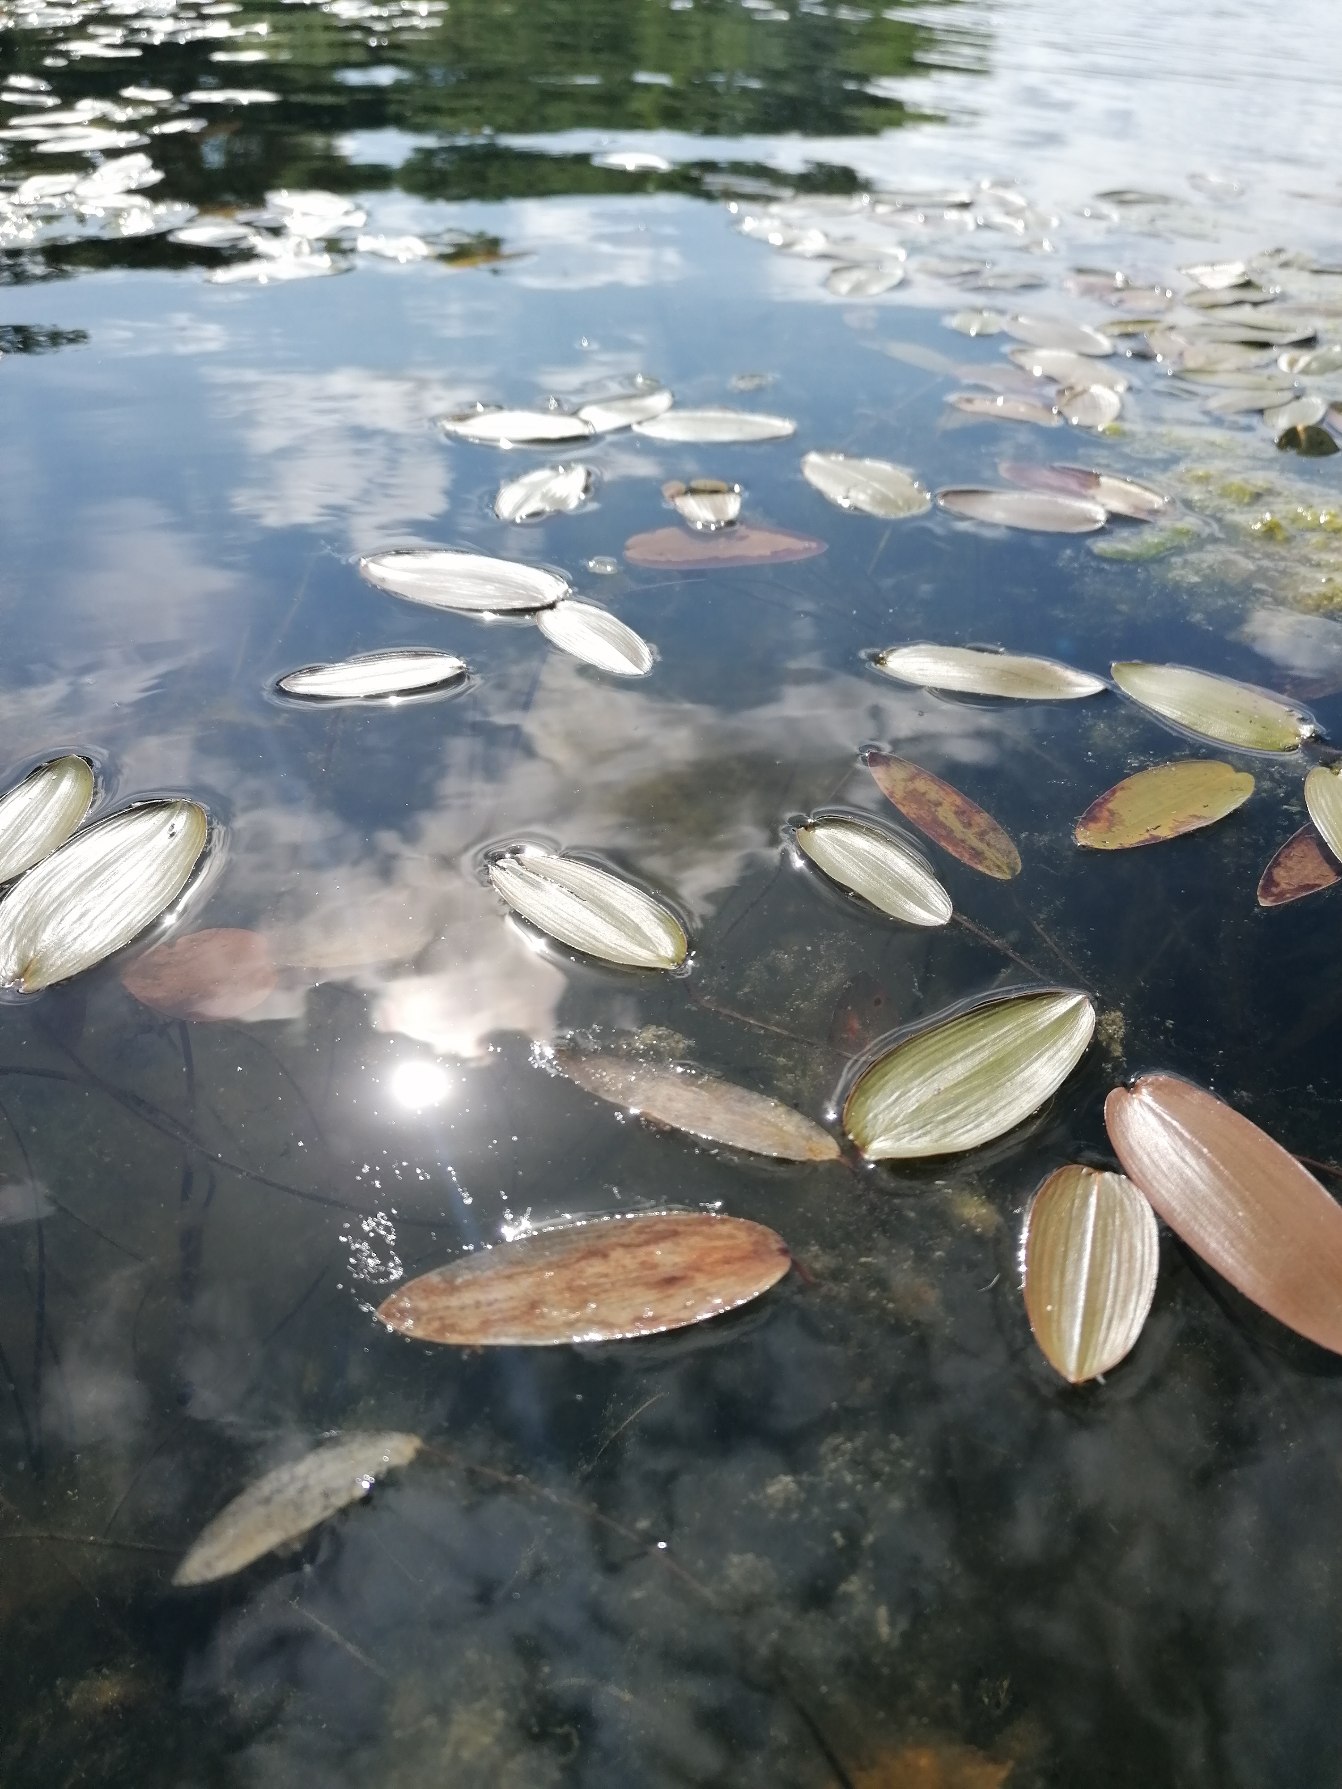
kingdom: Plantae
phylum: Tracheophyta
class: Liliopsida
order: Alismatales
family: Potamogetonaceae
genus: Potamogeton
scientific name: Potamogeton natans
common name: Svømmende vandaks
